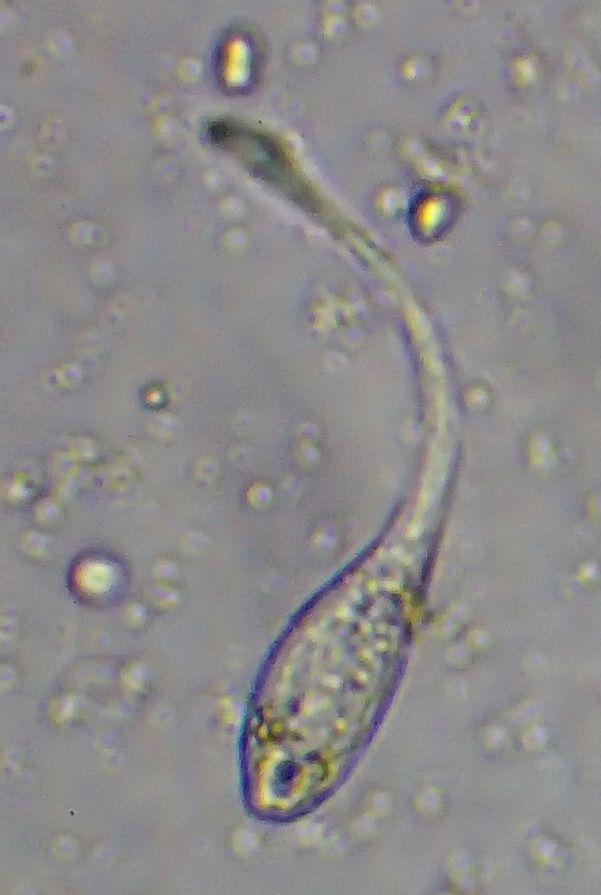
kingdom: Chromista
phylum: Ciliophora
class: Gymnostomatea
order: Spathidiida
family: Lacrymariidae
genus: Lacrymaria
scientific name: Lacrymaria olor
